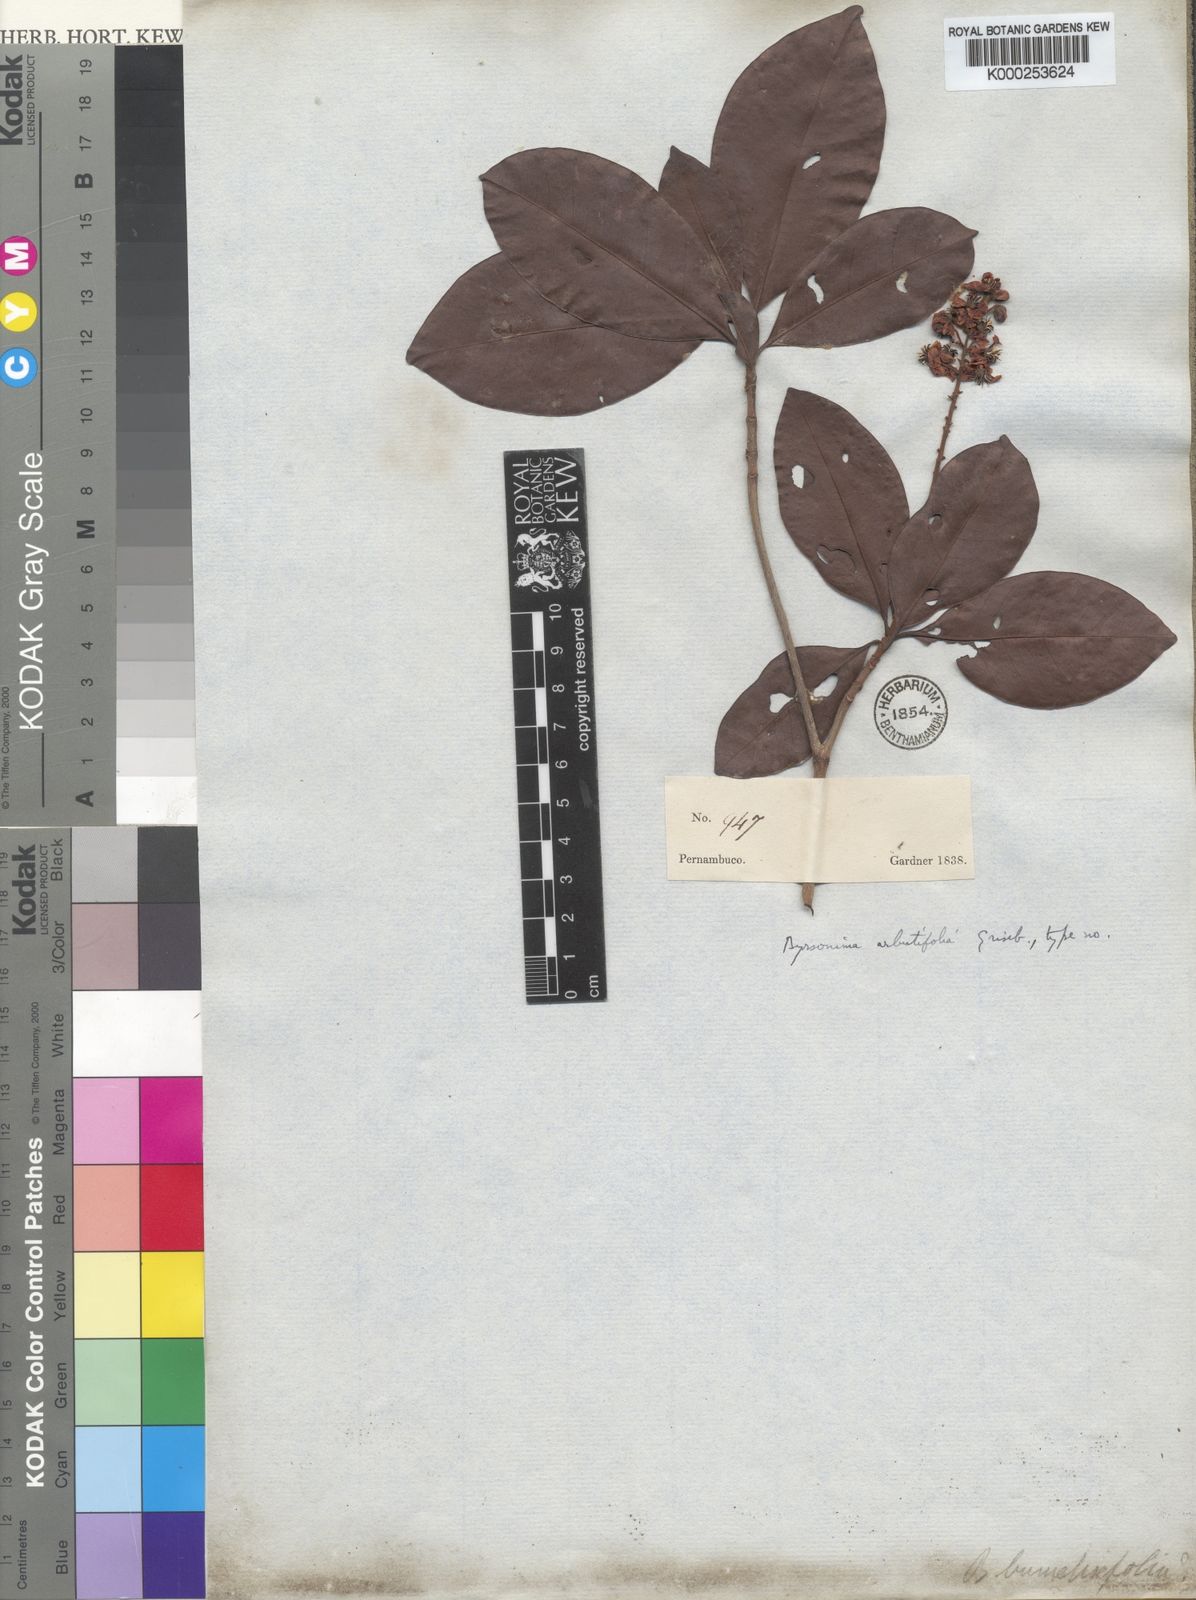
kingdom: Plantae
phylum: Tracheophyta
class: Magnoliopsida
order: Malpighiales
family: Malpighiaceae
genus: Byrsonima
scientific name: Byrsonima bumeliifolia
